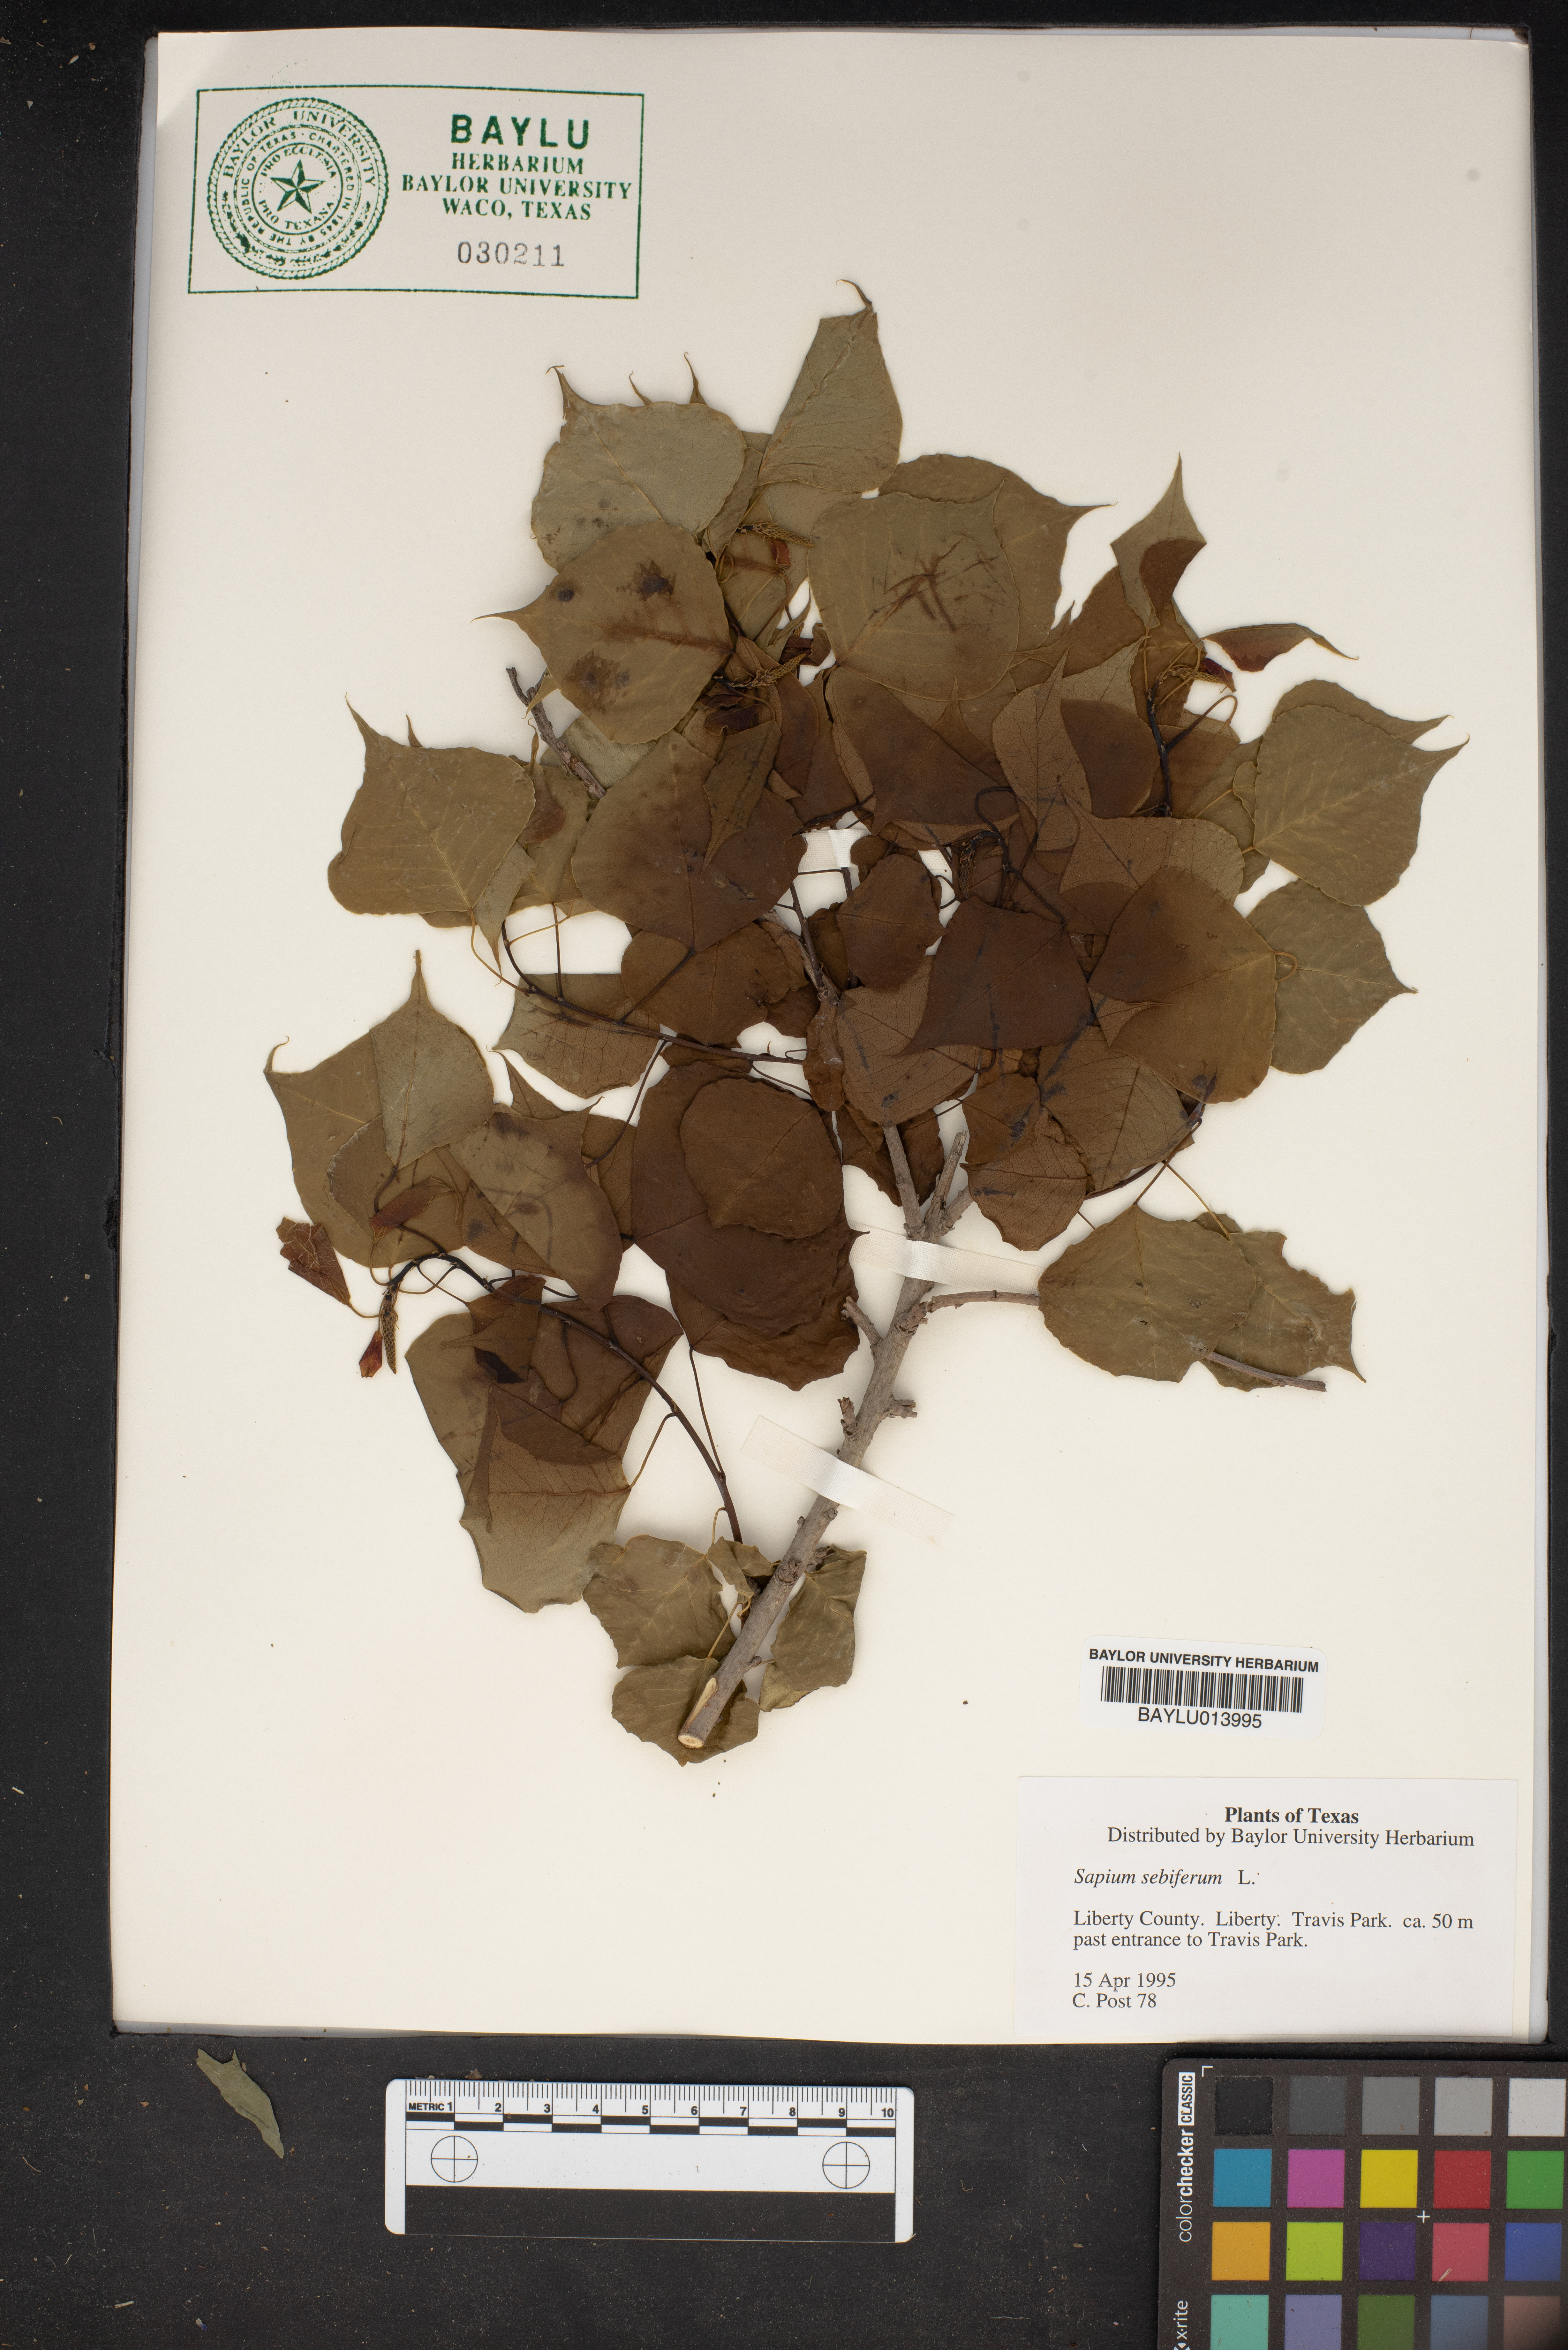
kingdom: Plantae
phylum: Tracheophyta
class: Magnoliopsida
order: Malpighiales
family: Euphorbiaceae
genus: Triadica
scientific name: Triadica sebifera
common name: Chinese tallow
